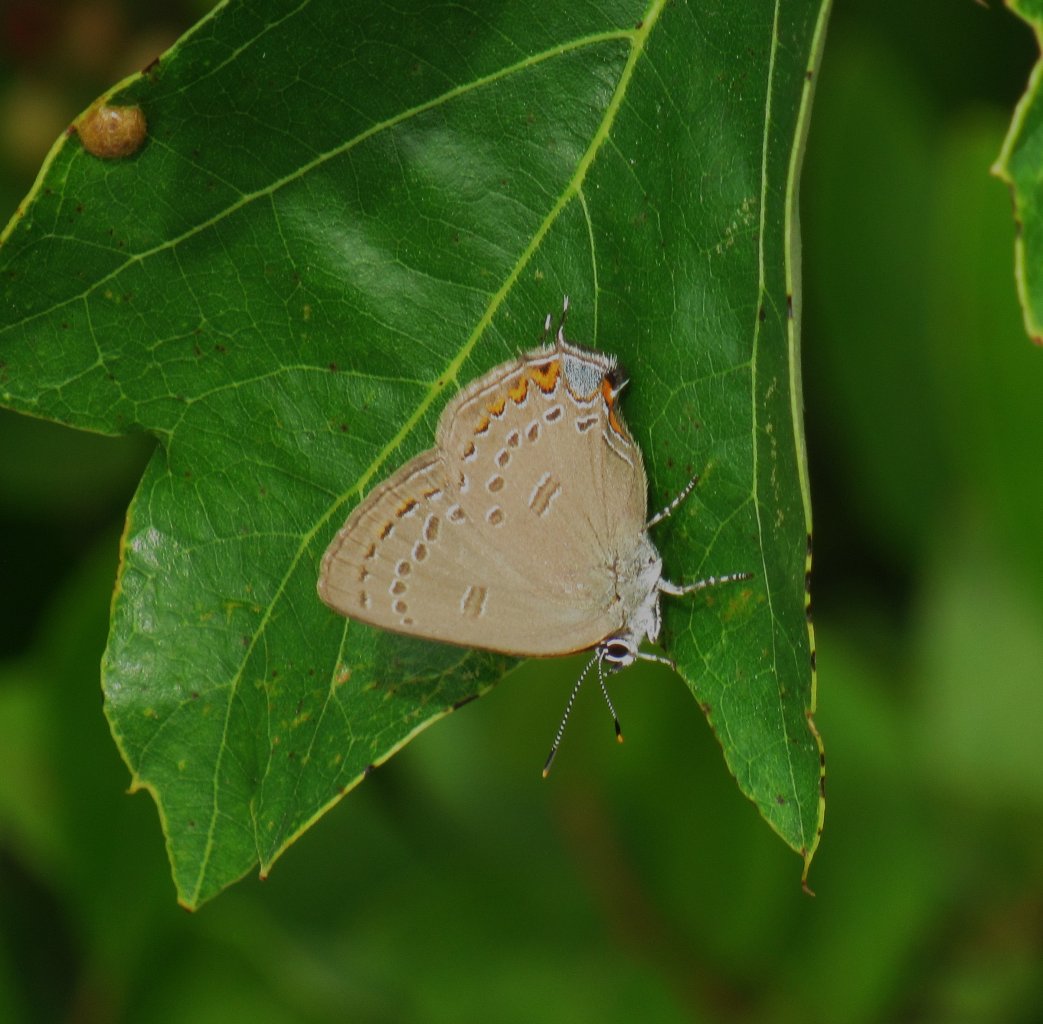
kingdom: Animalia
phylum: Arthropoda
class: Insecta
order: Lepidoptera
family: Lycaenidae
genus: Satyrium
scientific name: Satyrium edwardsii
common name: Edwards' Hairstreak
